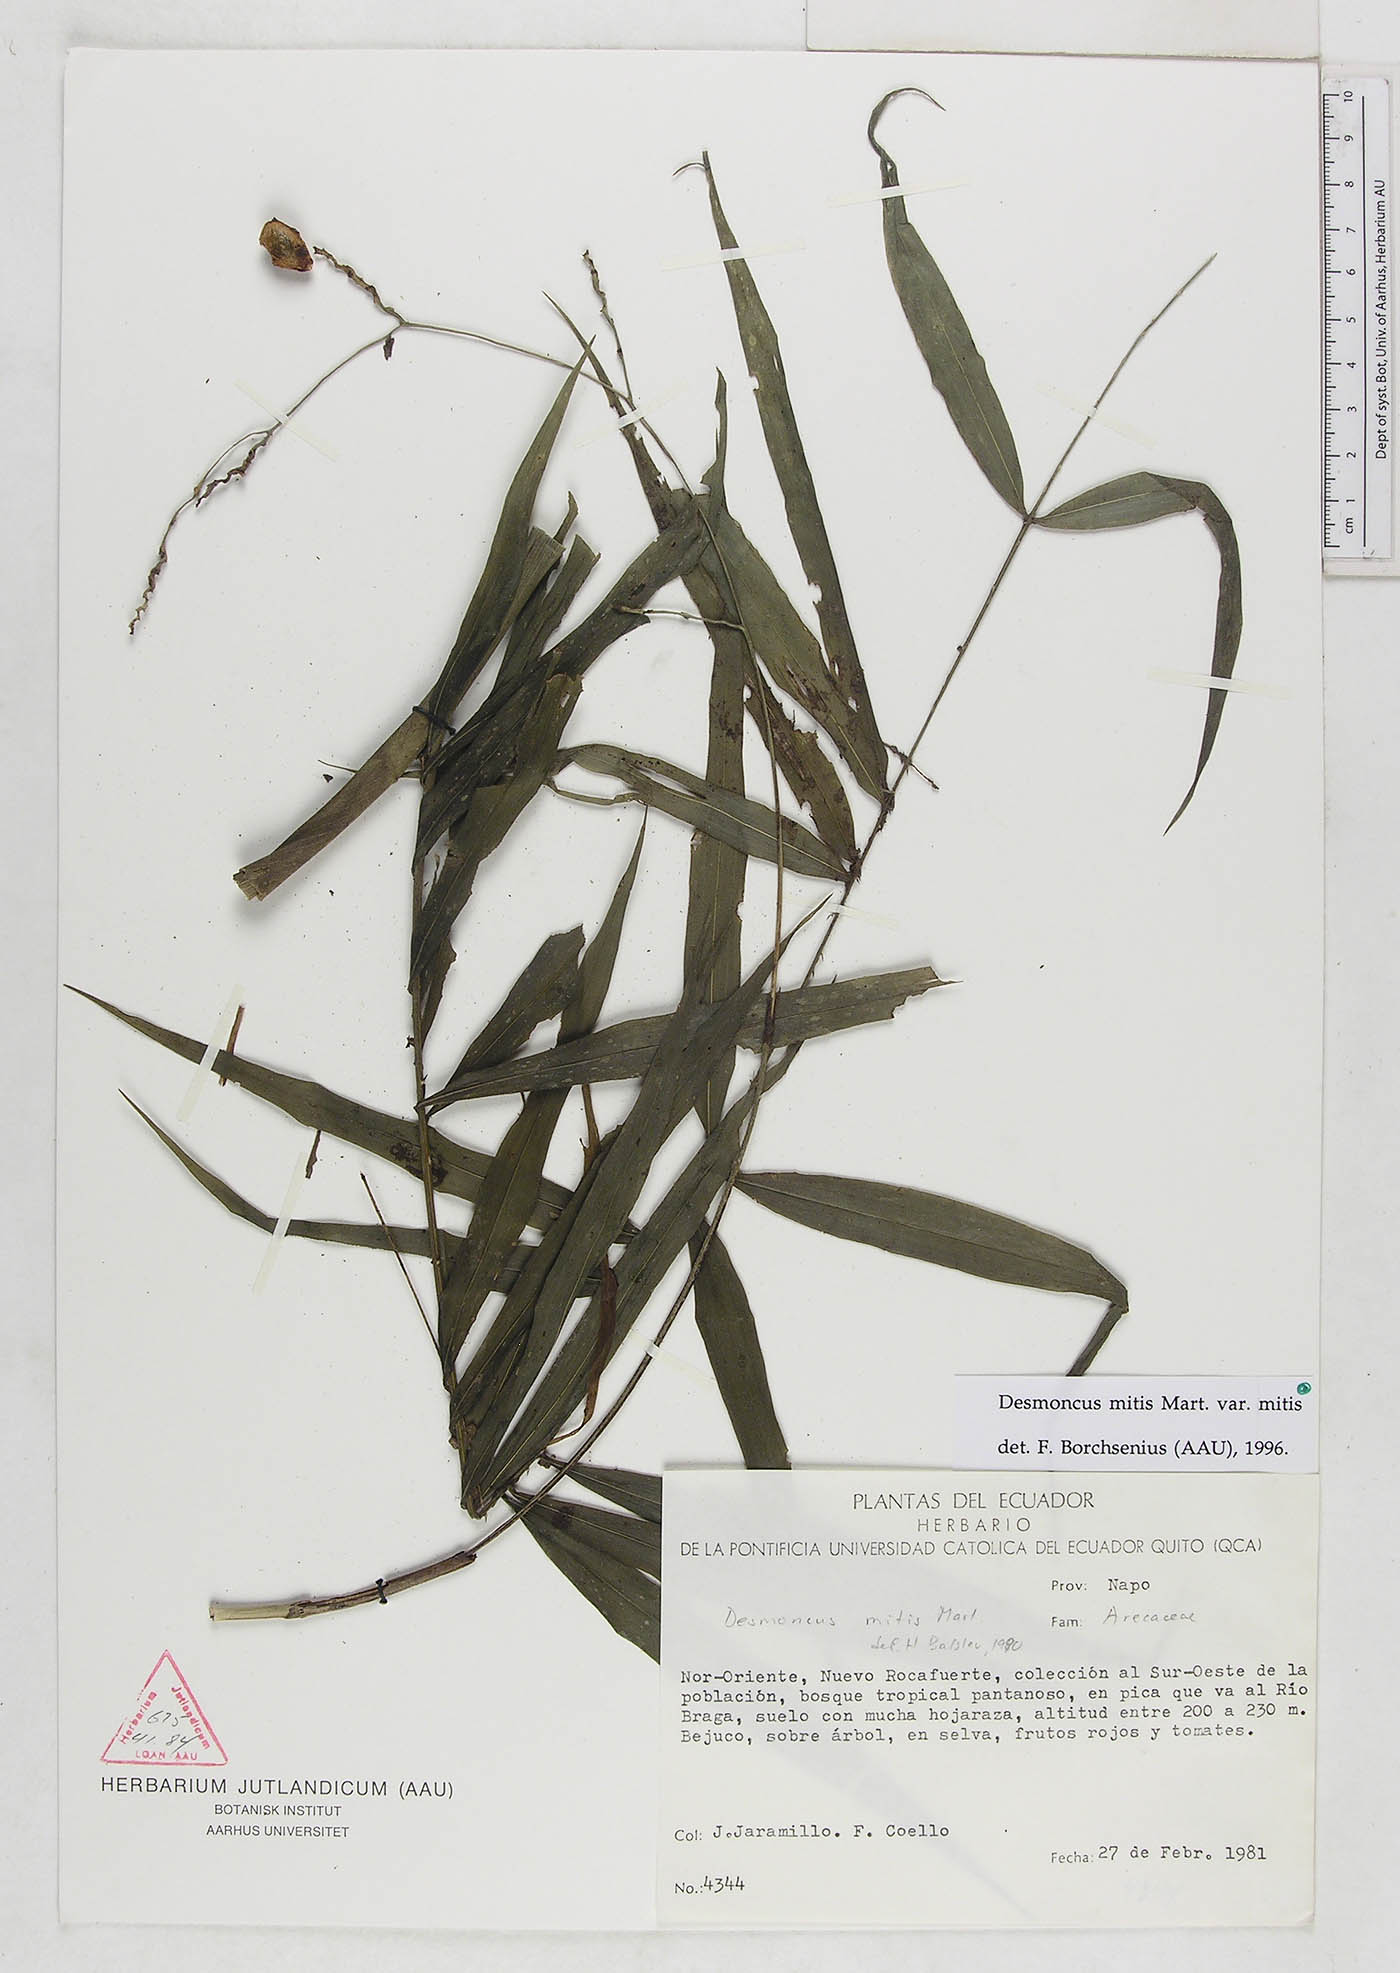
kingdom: Plantae
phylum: Tracheophyta
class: Liliopsida
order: Arecales
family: Arecaceae
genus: Desmoncus
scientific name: Desmoncus mitis
